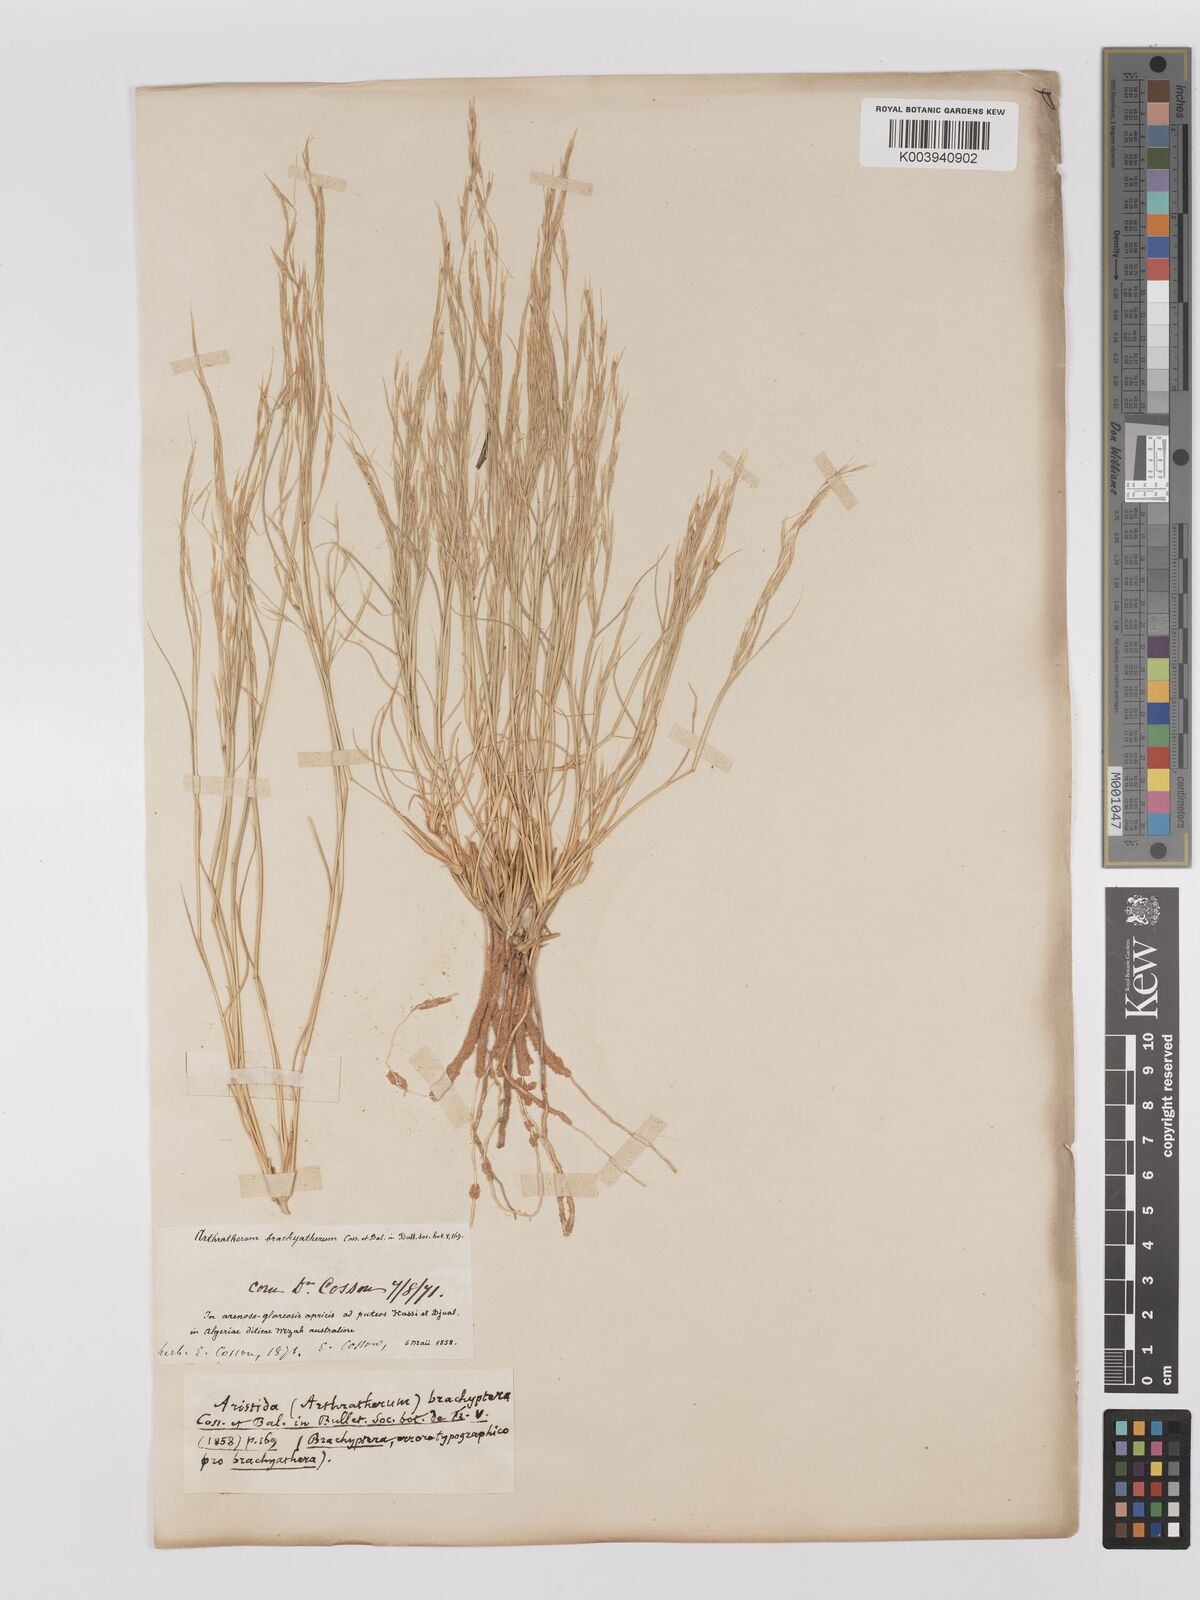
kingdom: Plantae
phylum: Tracheophyta
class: Liliopsida
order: Poales
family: Poaceae
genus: Stipagrostis
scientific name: Stipagrostis acutiflora
